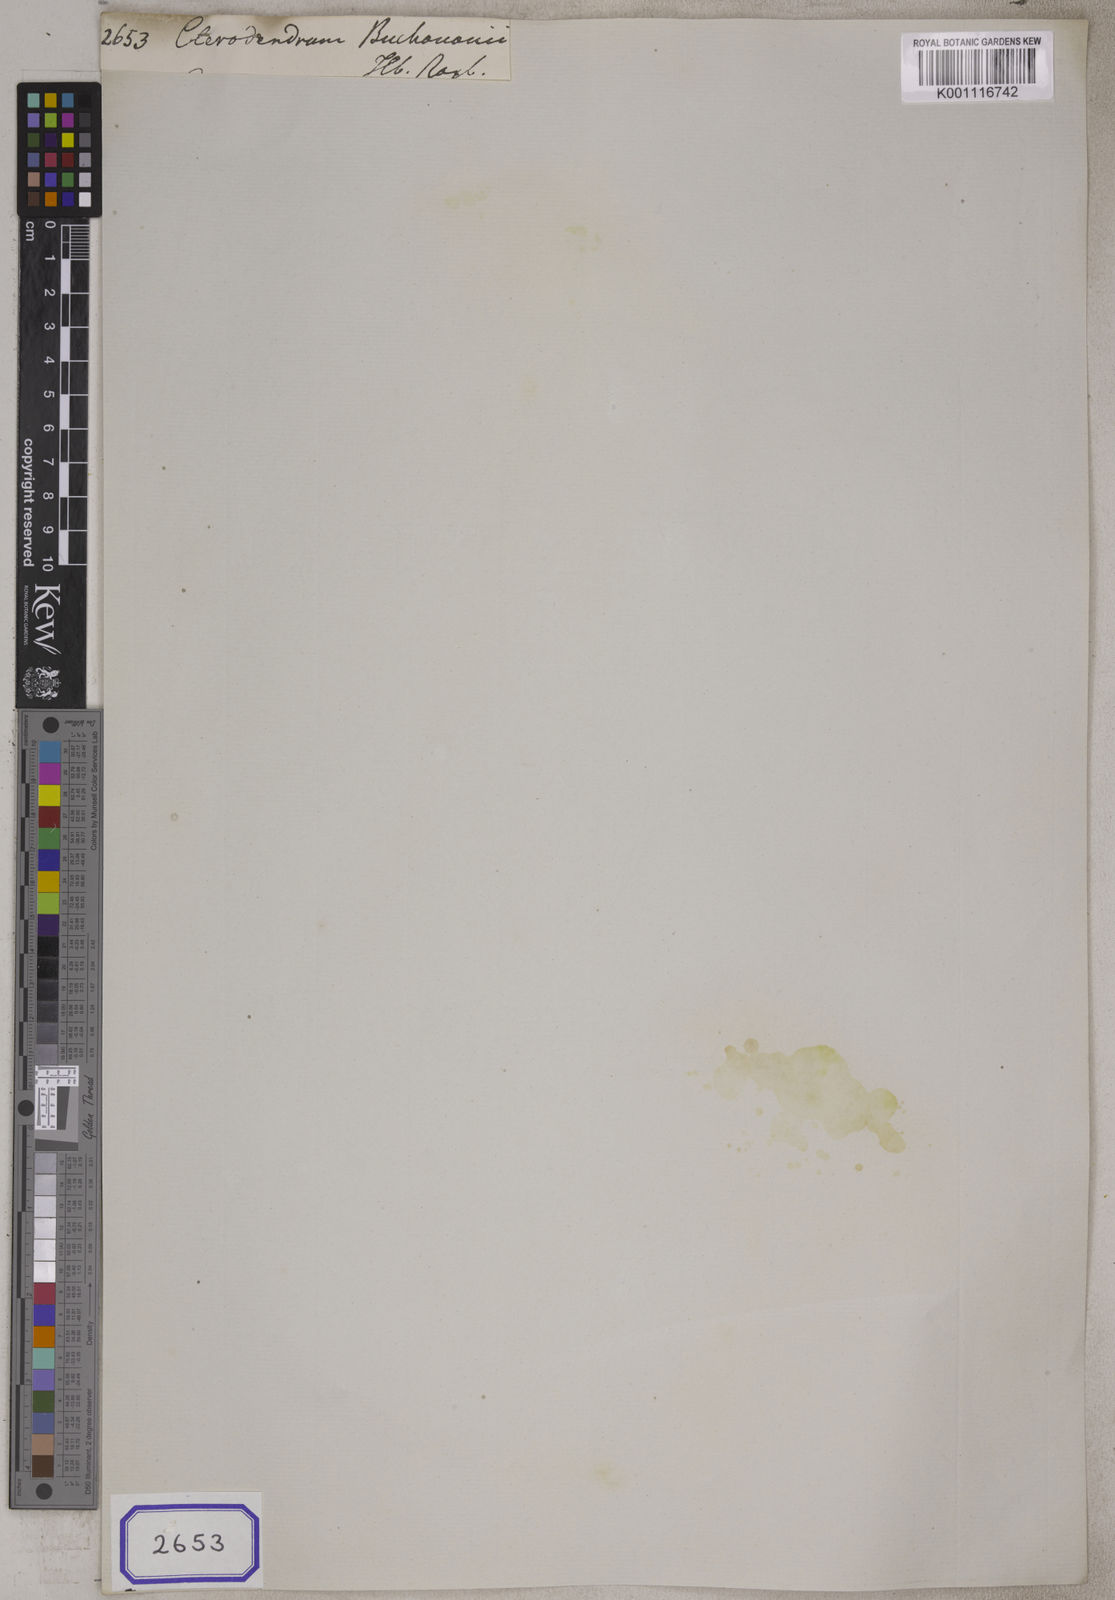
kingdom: Plantae
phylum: Tracheophyta
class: Magnoliopsida
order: Lamiales
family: Lamiaceae
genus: Clerodendrum
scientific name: Clerodendrum buchananii
